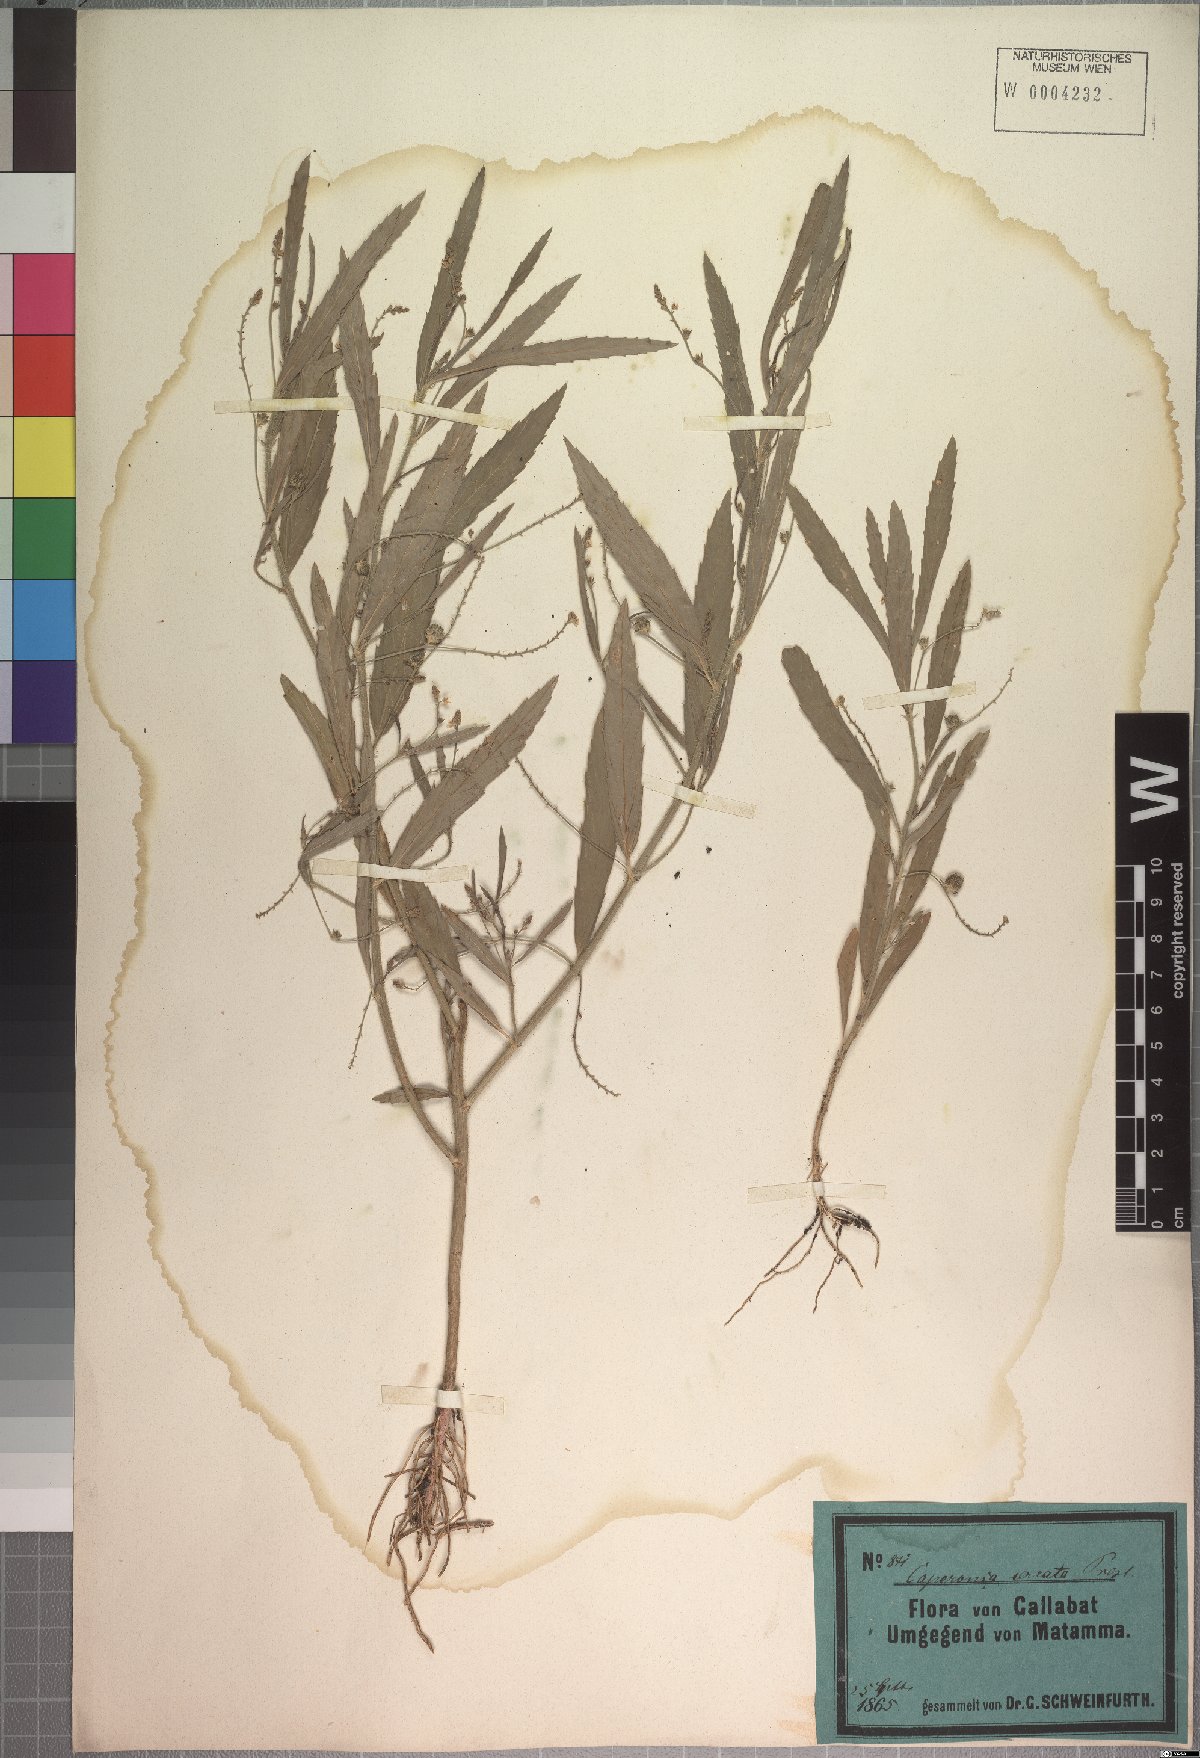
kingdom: Plantae
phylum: Tracheophyta
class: Magnoliopsida
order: Malpighiales
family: Euphorbiaceae
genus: Caperonia
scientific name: Caperonia serrata
